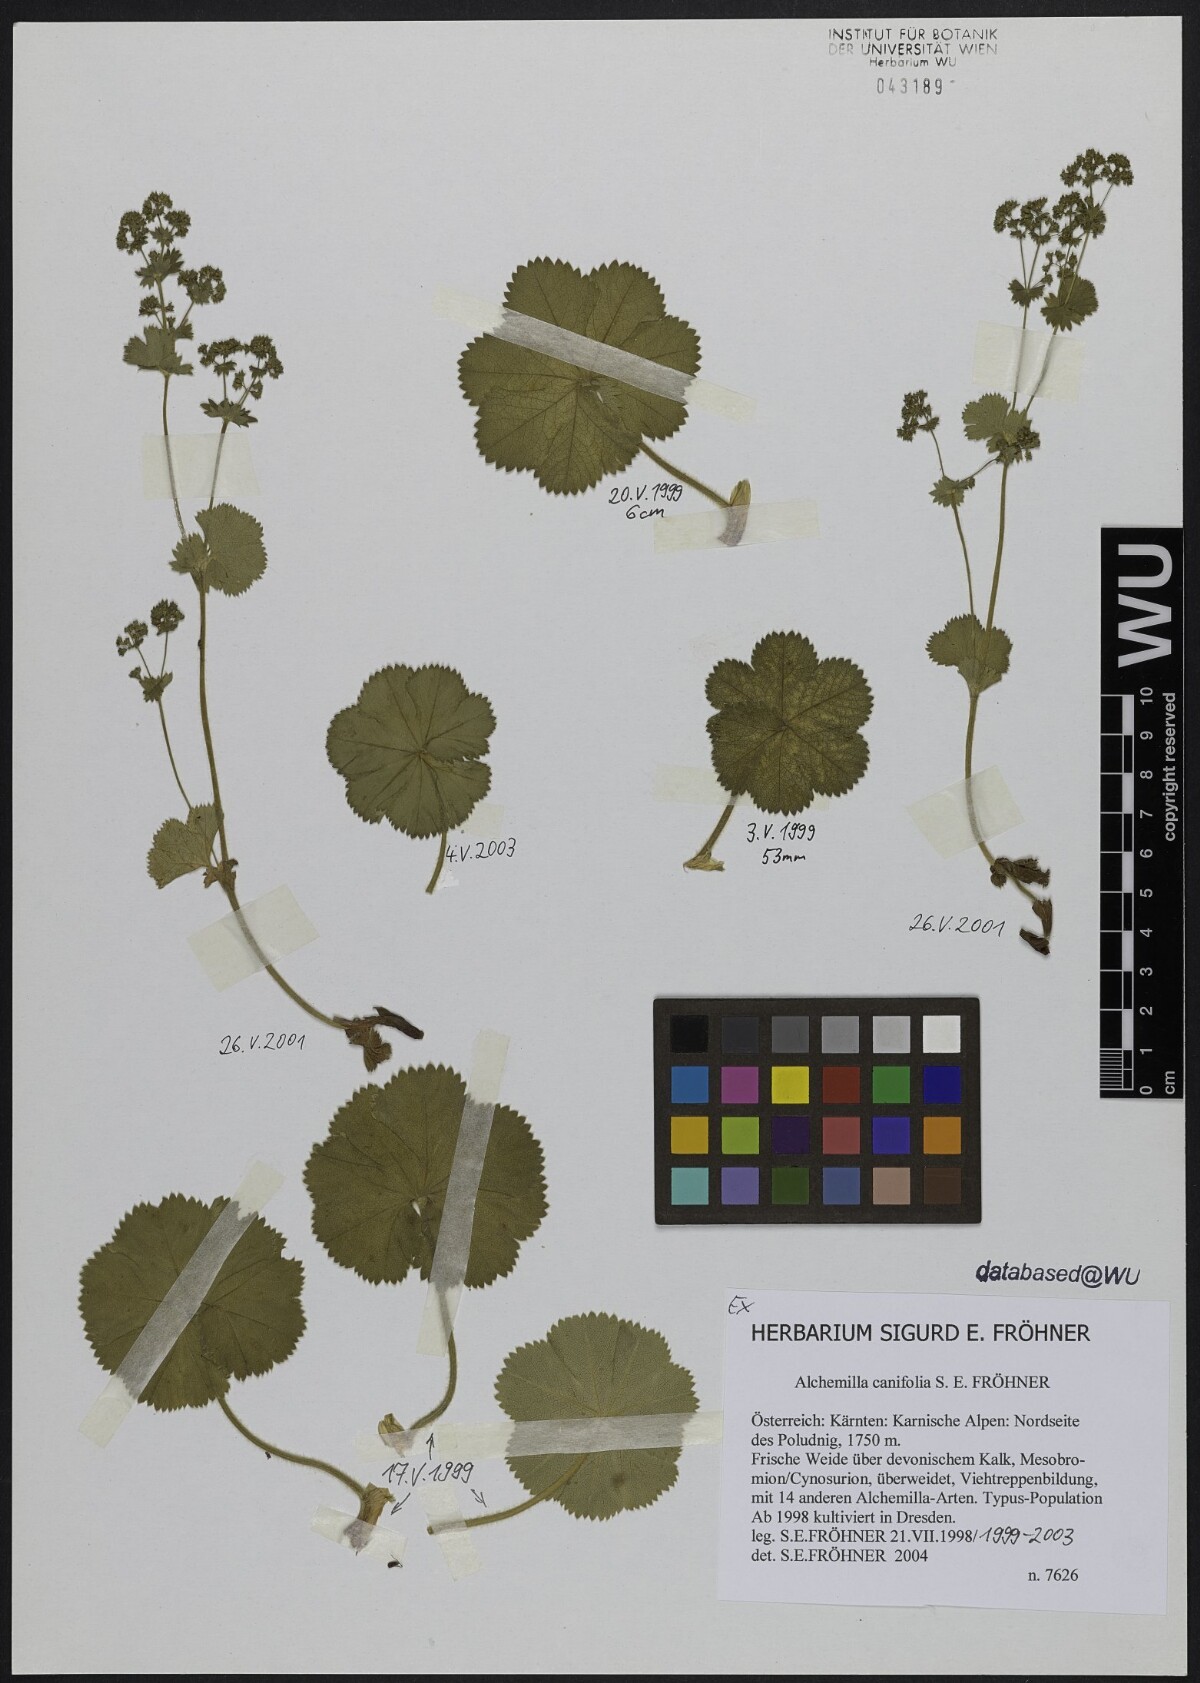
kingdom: Plantae
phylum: Tracheophyta
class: Magnoliopsida
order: Rosales
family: Rosaceae
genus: Alchemilla
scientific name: Alchemilla canifolia
